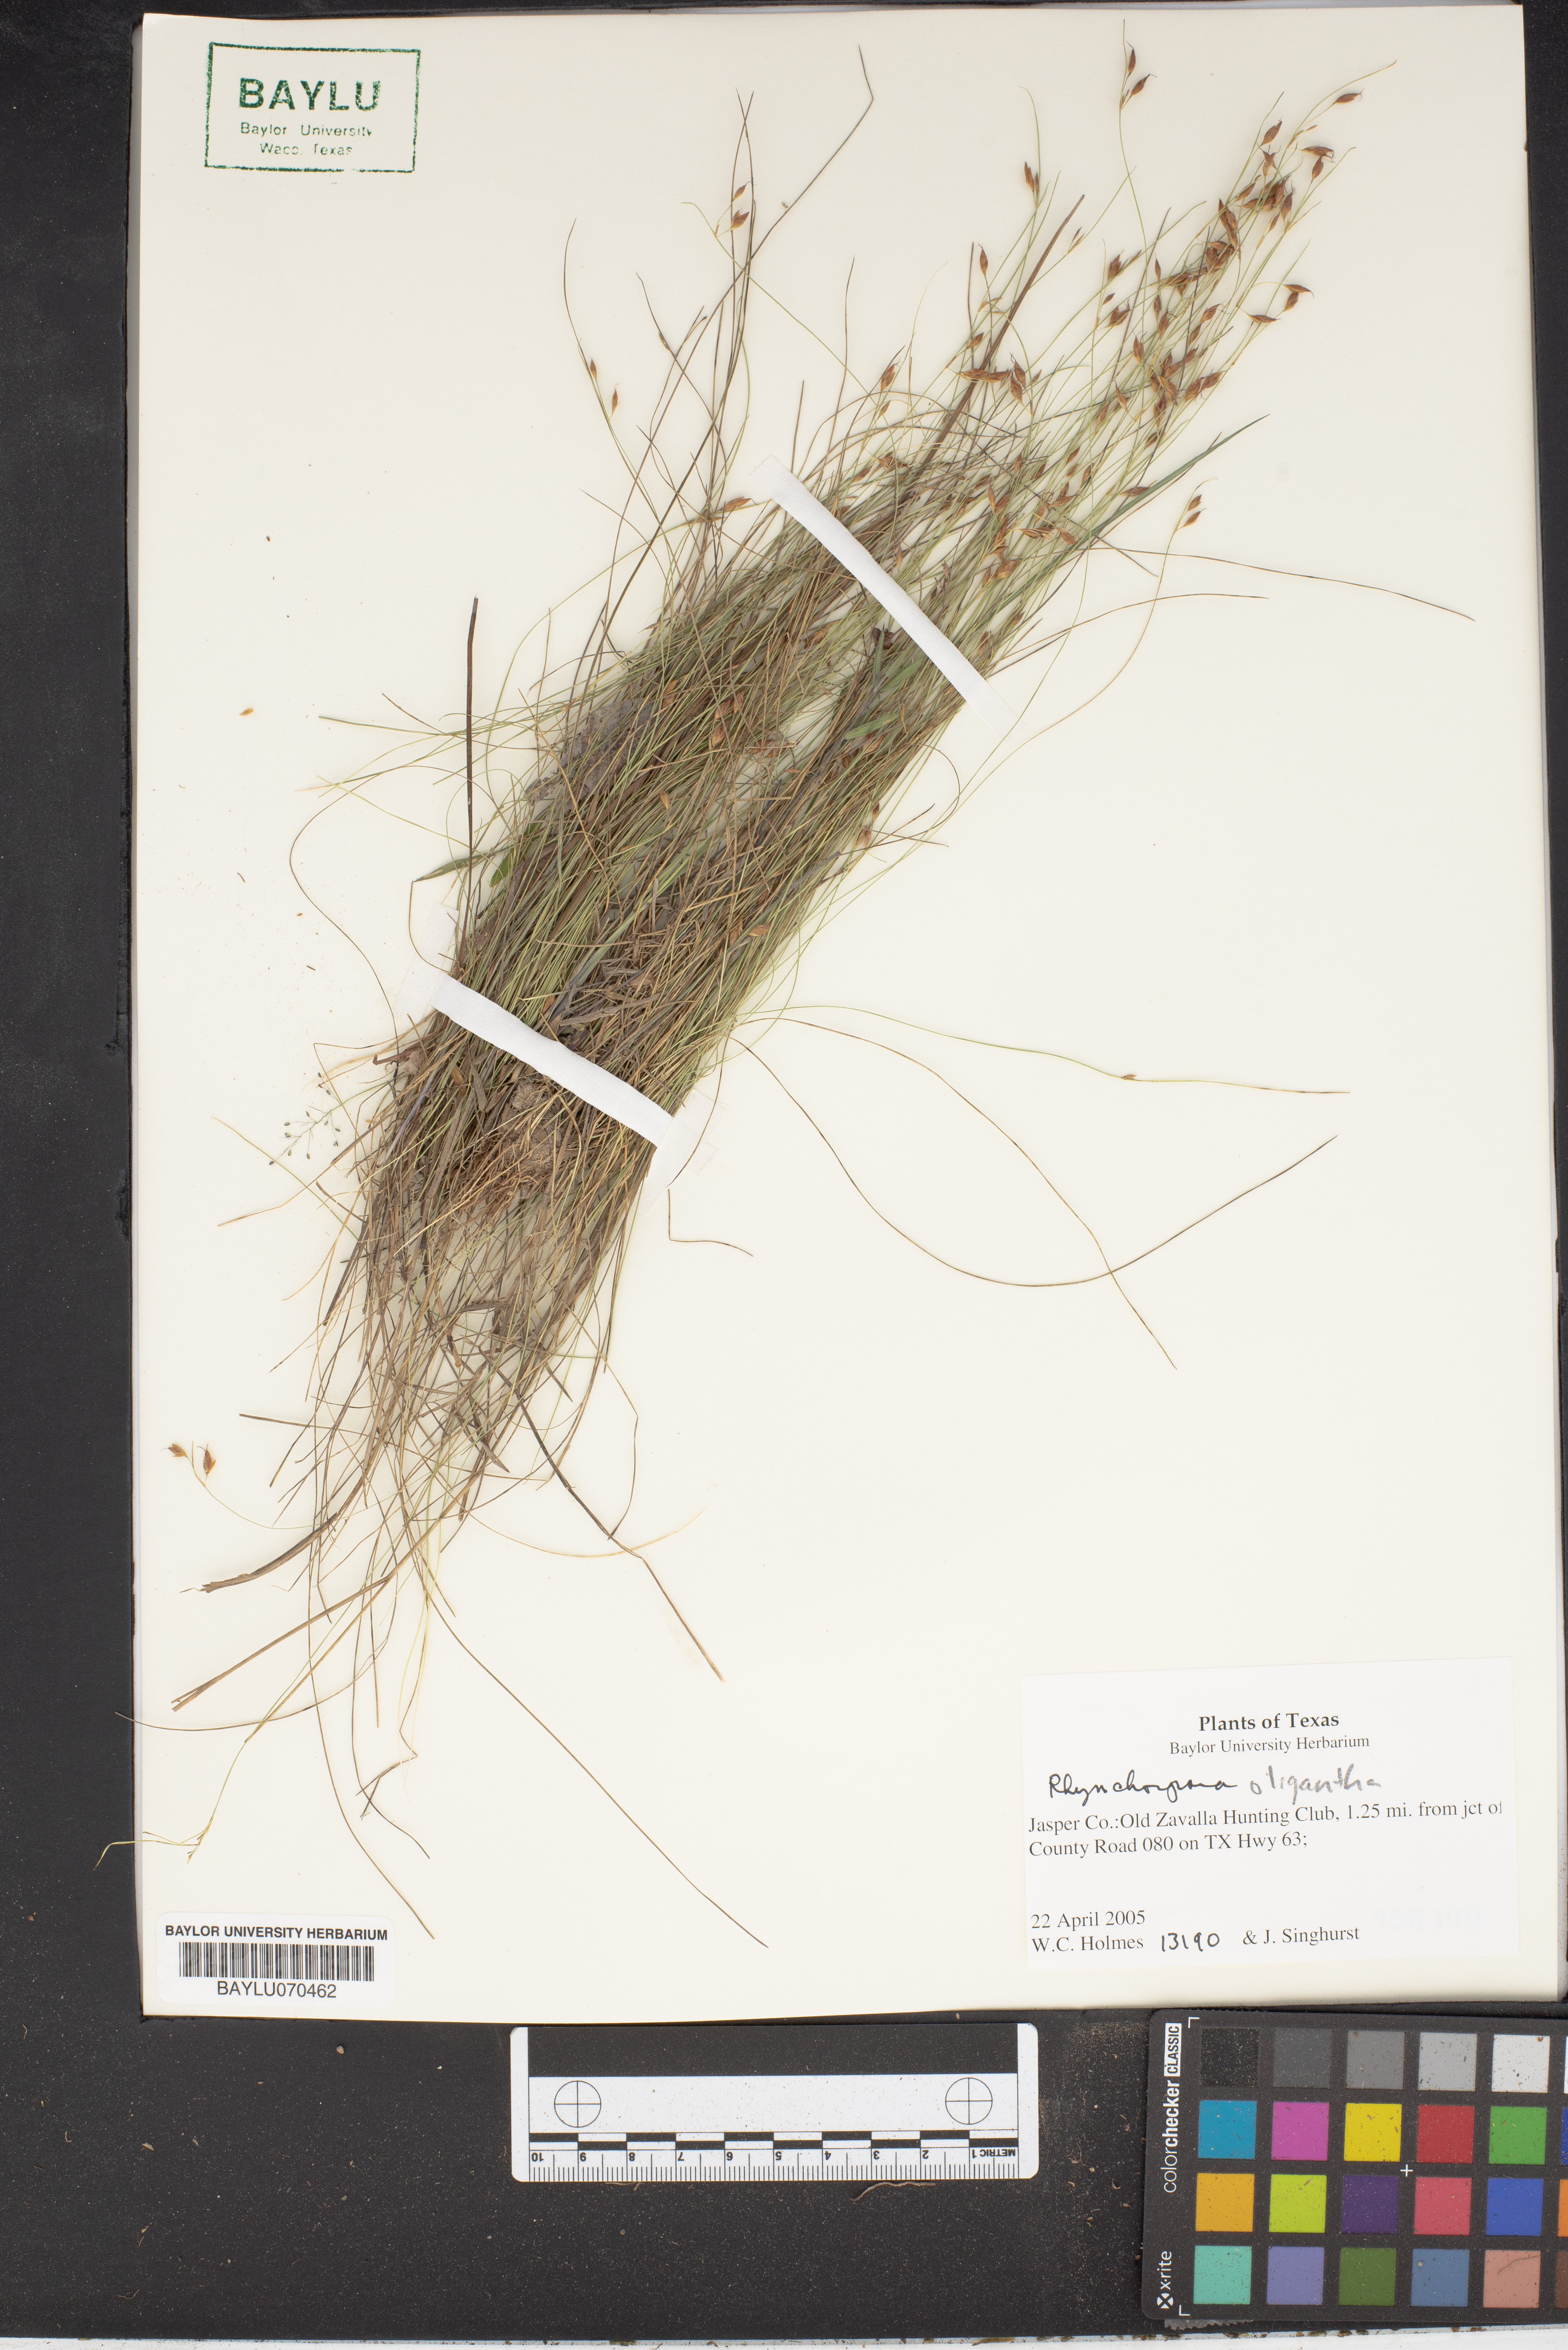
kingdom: Plantae
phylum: Tracheophyta
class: Liliopsida
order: Poales
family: Cyperaceae
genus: Rhynchospora
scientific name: Rhynchospora oligantha
